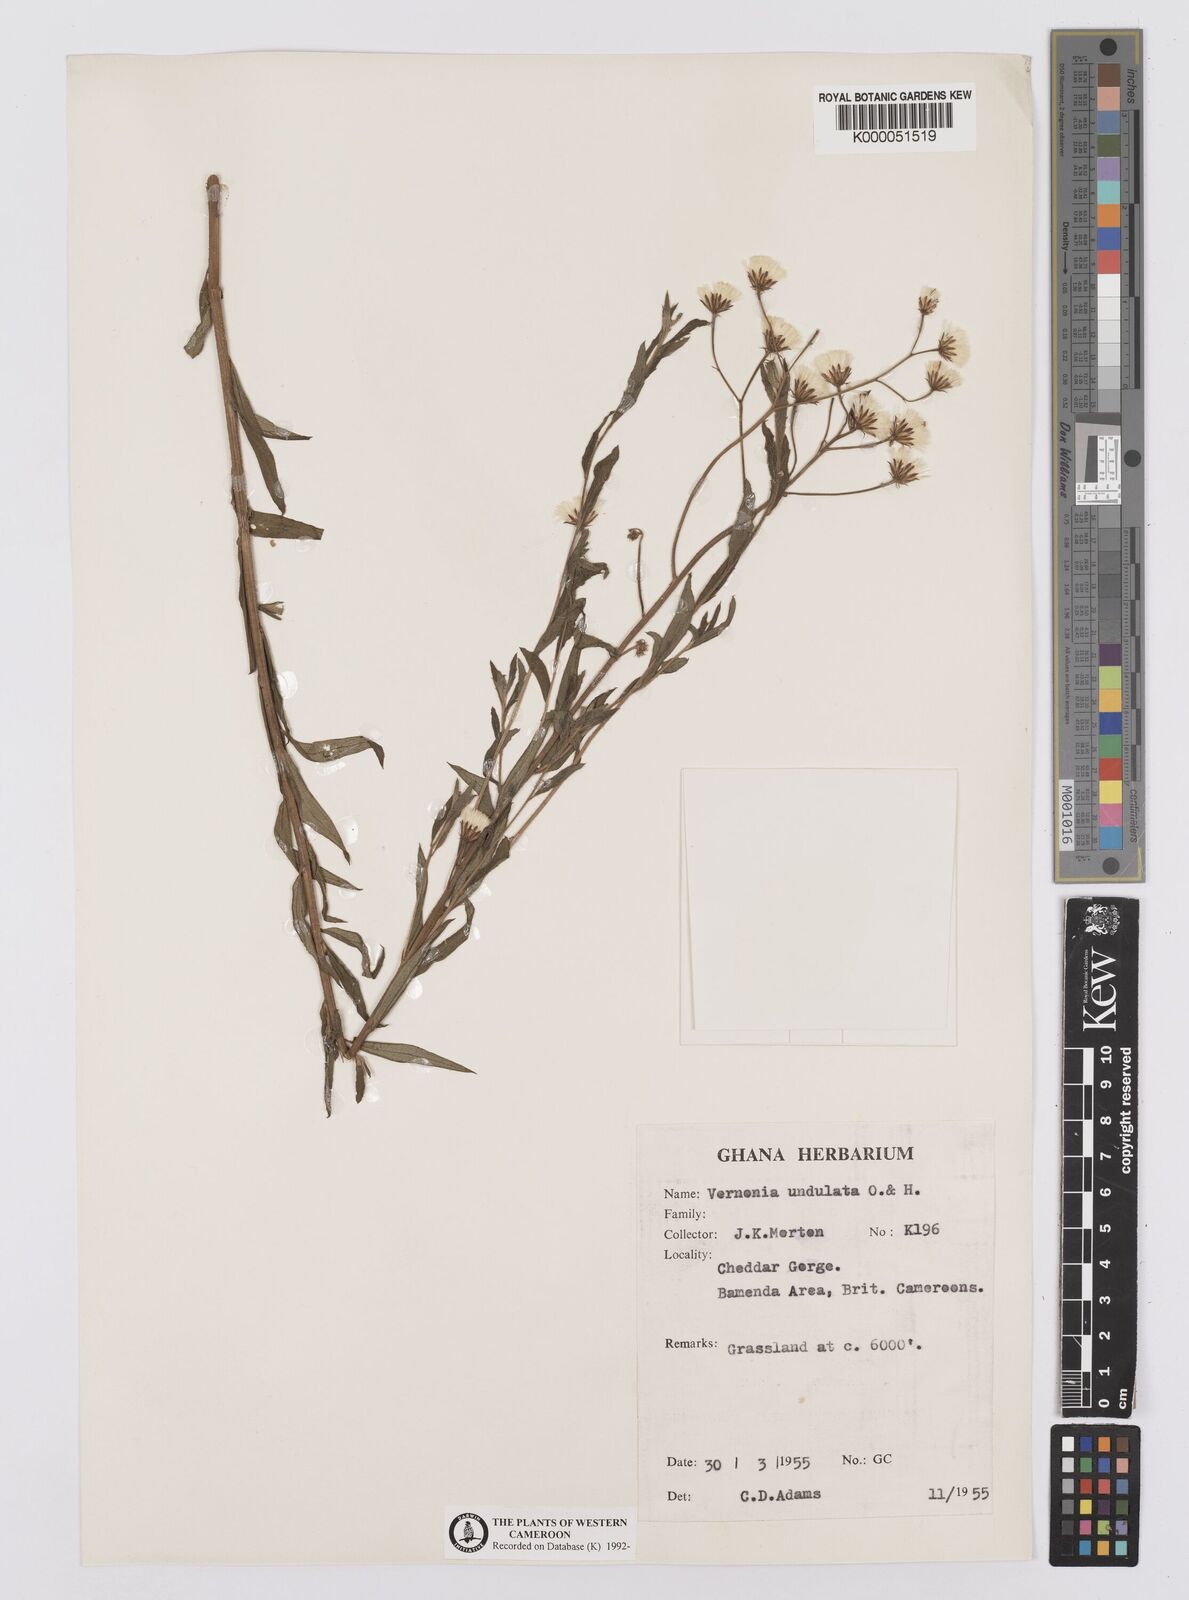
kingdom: Plantae
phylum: Tracheophyta
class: Magnoliopsida
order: Asterales
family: Asteraceae
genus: Vernonia
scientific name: Vernonia golungensis
